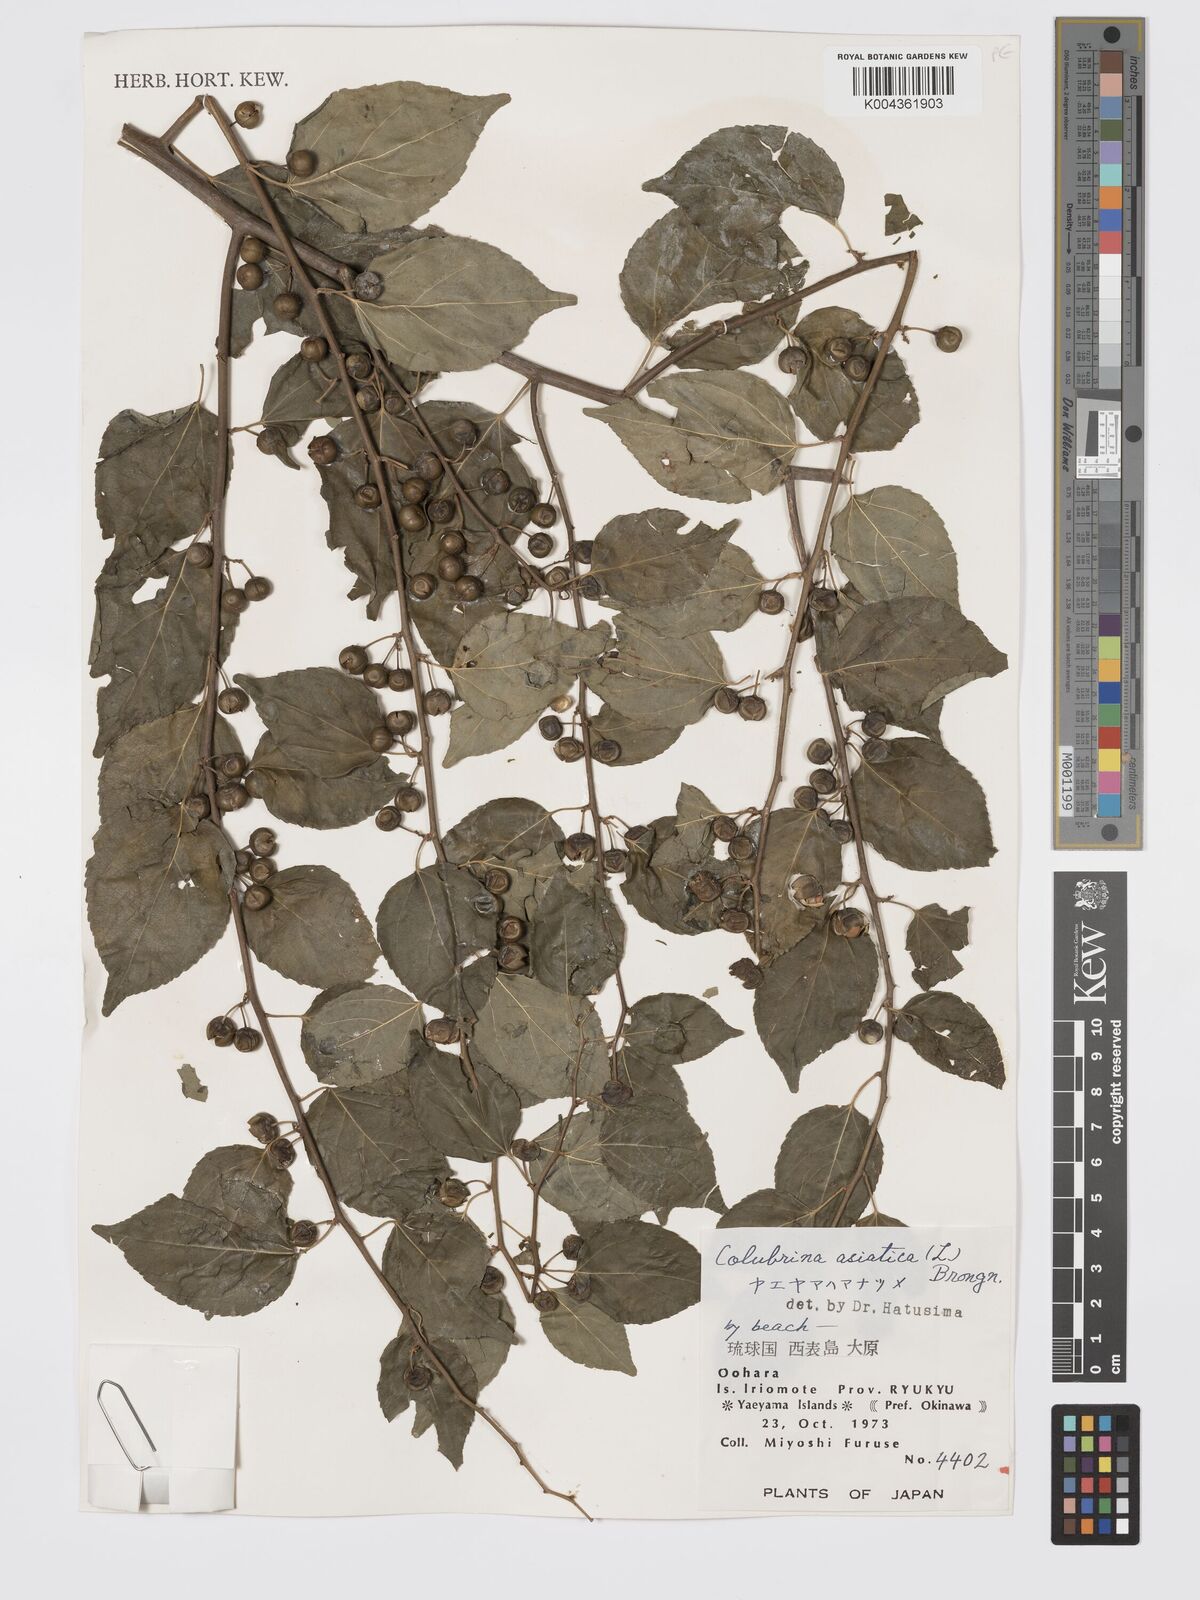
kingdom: Plantae
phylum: Tracheophyta
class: Magnoliopsida
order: Rosales
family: Rhamnaceae
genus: Colubrina
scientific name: Colubrina asiatica
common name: Asian nakedwood
